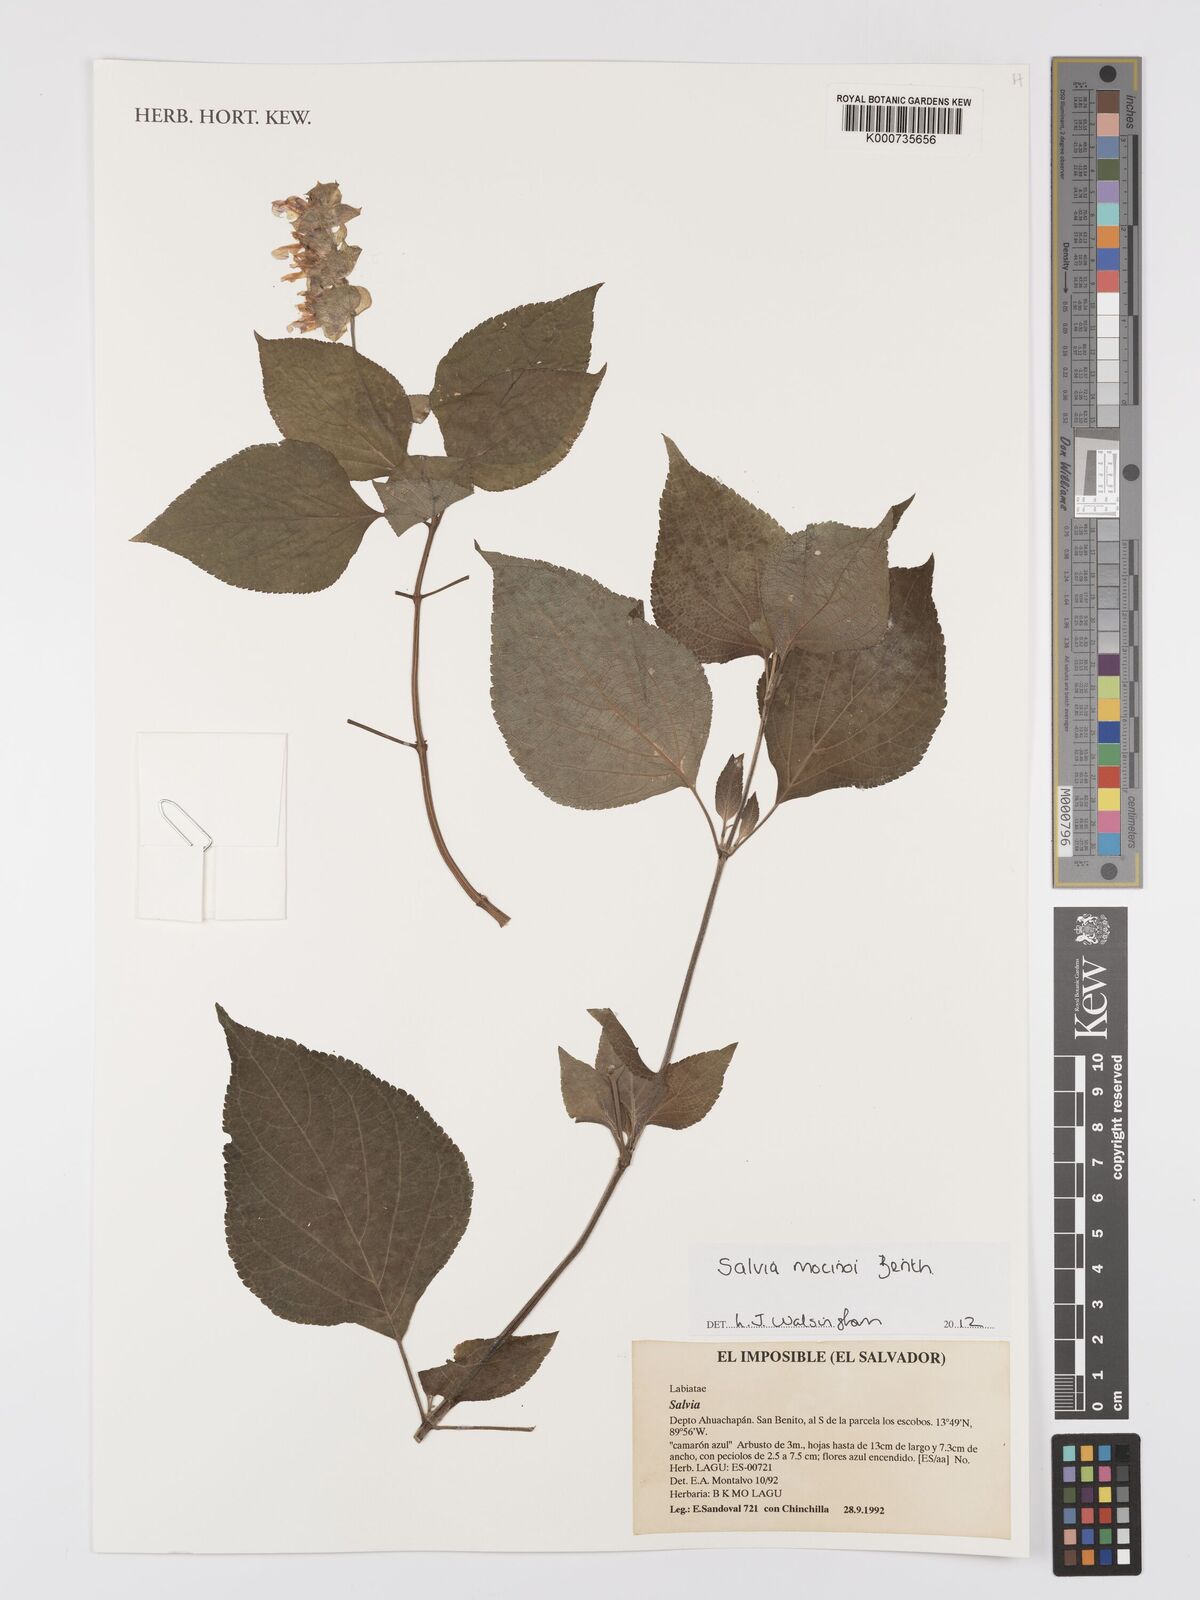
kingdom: Plantae
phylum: Tracheophyta
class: Magnoliopsida
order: Lamiales
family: Lamiaceae
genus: Salvia
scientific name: Salvia mocinoi
